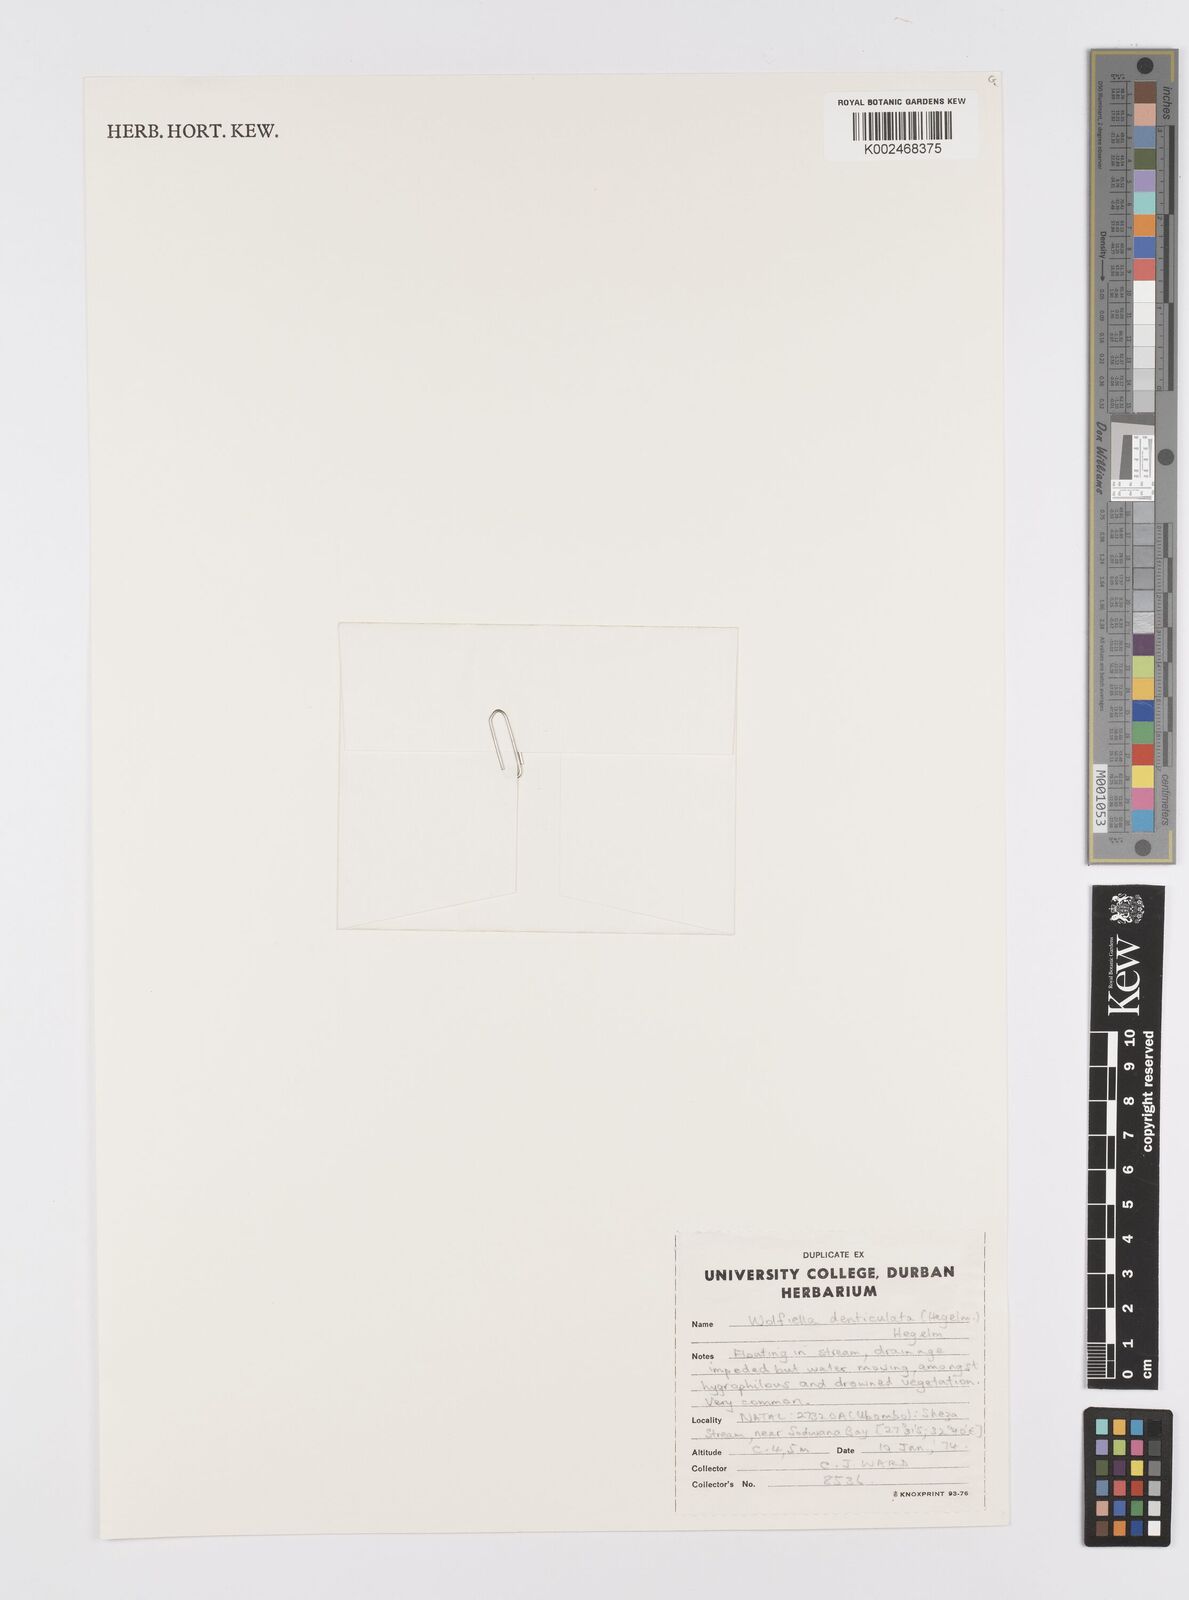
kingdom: Plantae
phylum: Tracheophyta
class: Liliopsida
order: Alismatales
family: Araceae
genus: Wolffiella
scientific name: Wolffiella denticulata
